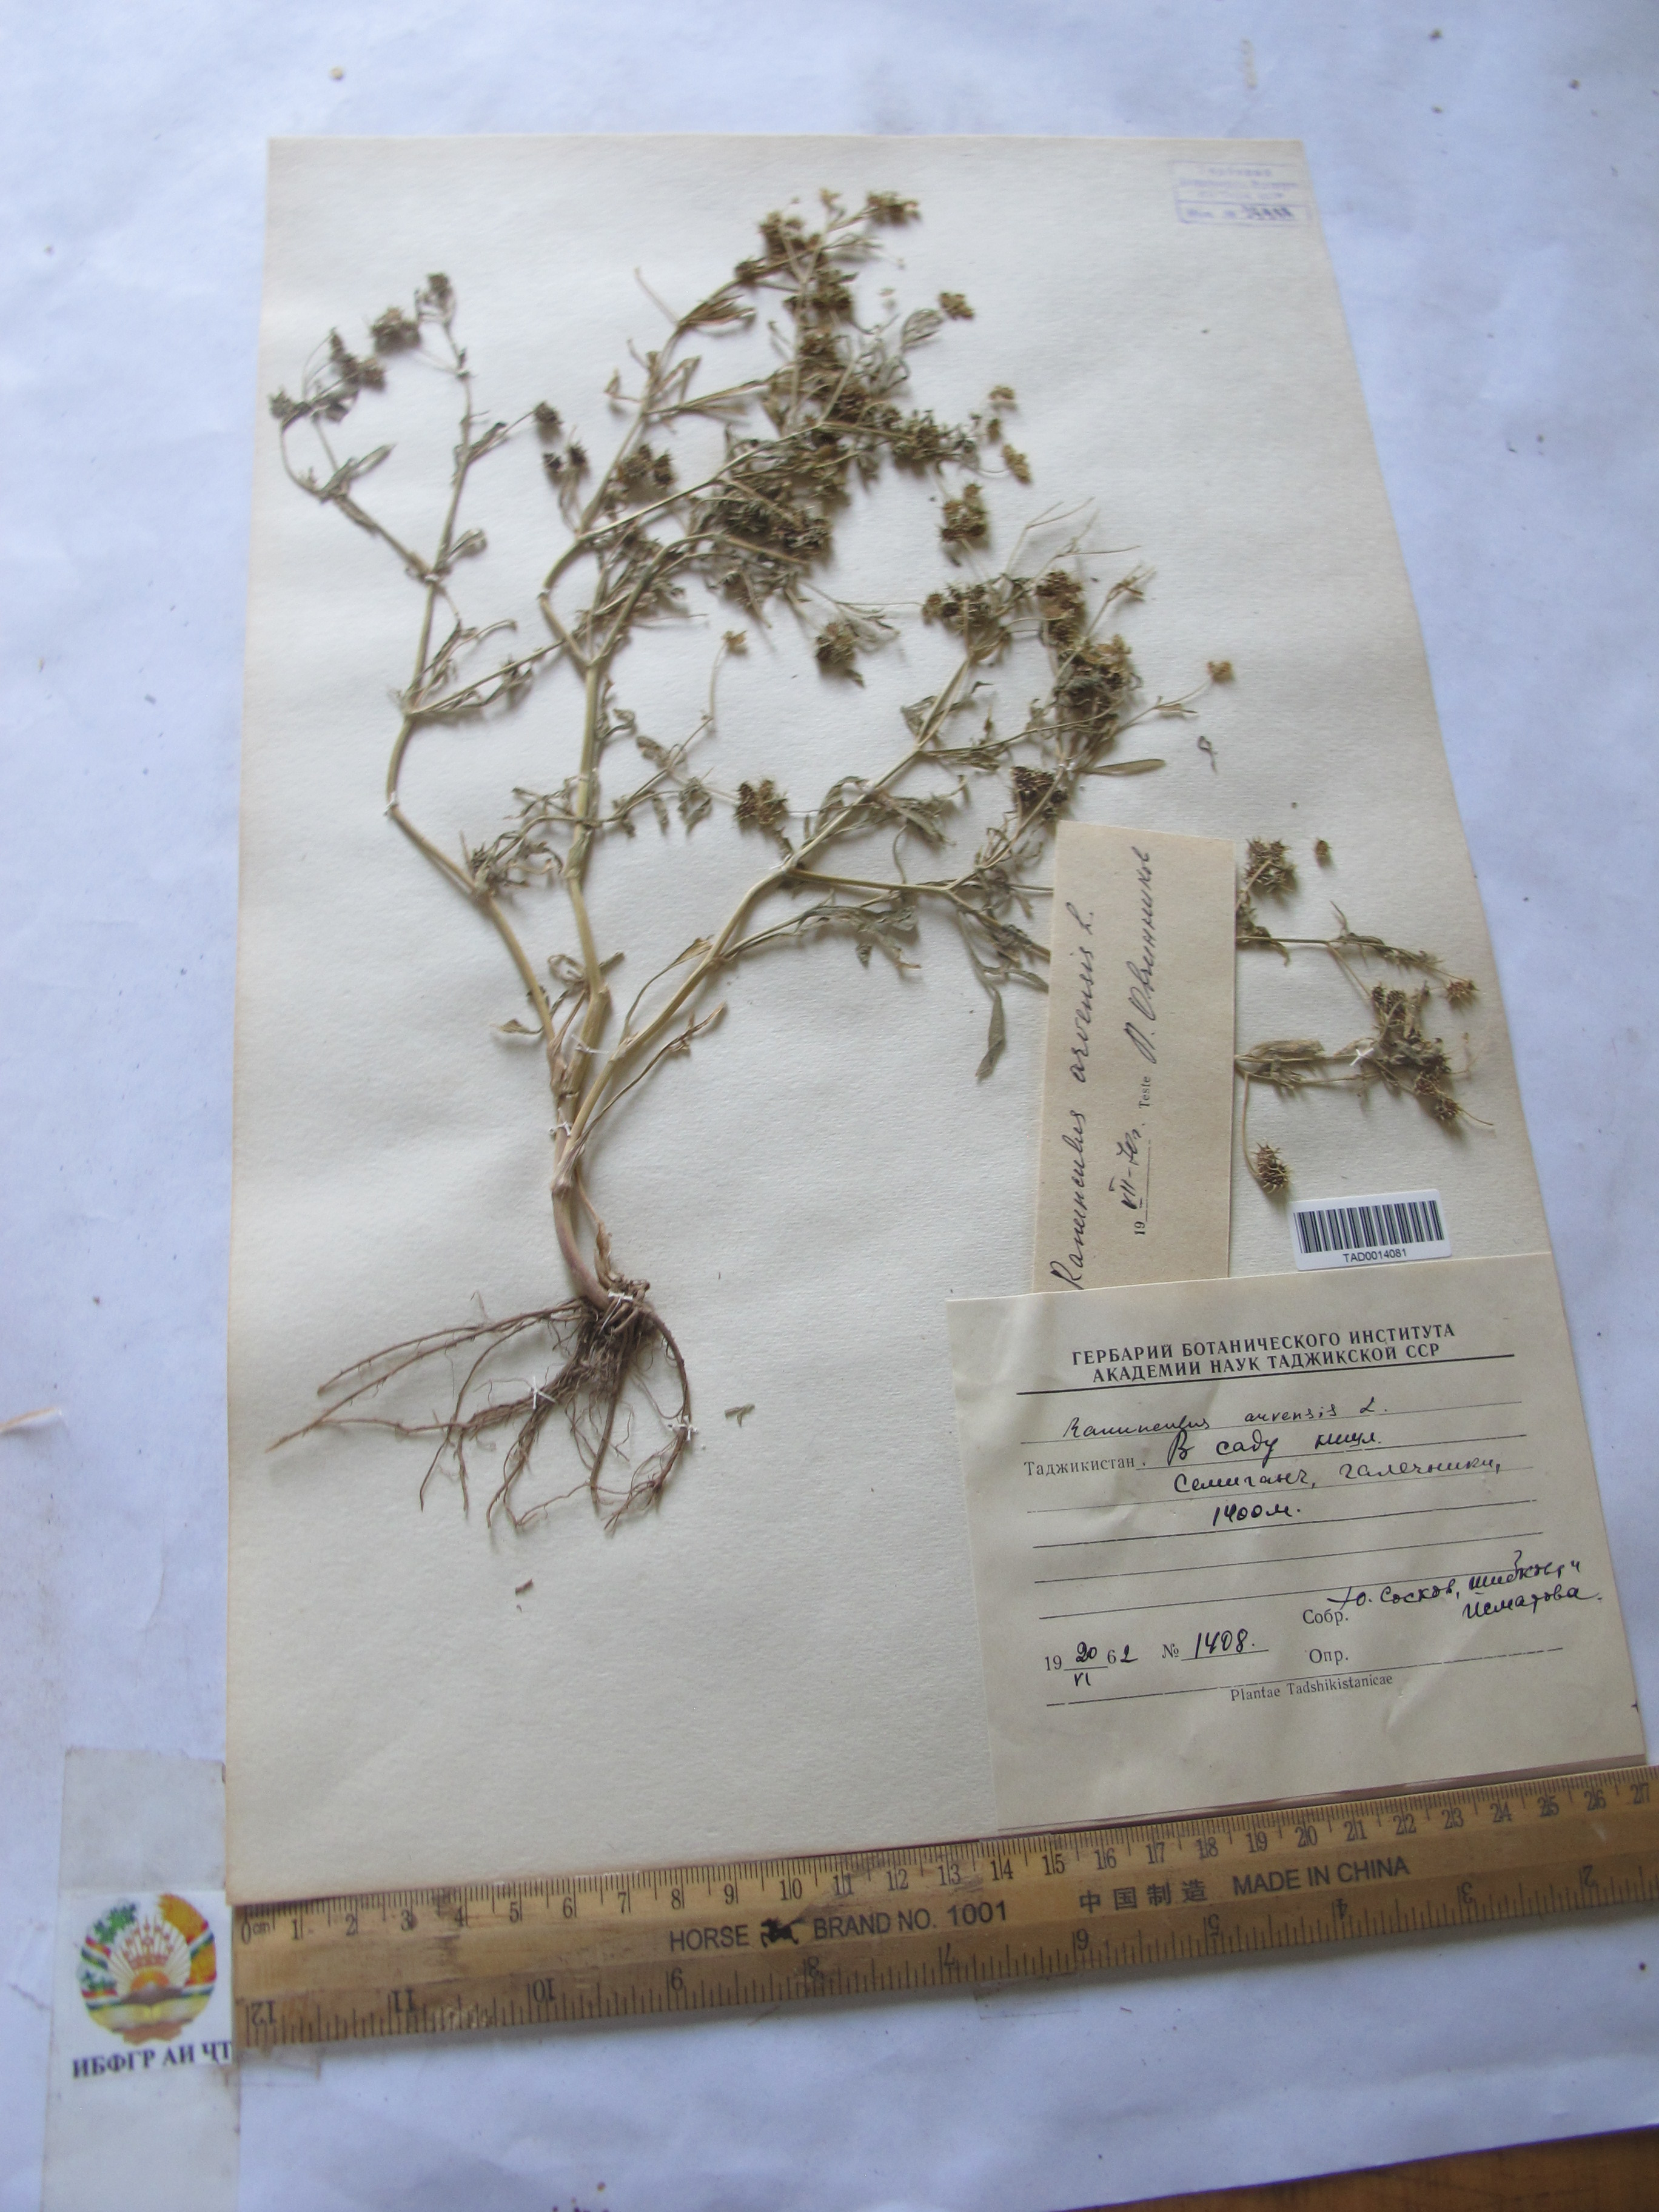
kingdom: Plantae
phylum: Tracheophyta
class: Magnoliopsida
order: Ranunculales
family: Ranunculaceae
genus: Ranunculus
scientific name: Ranunculus arvensis
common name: Corn buttercup
